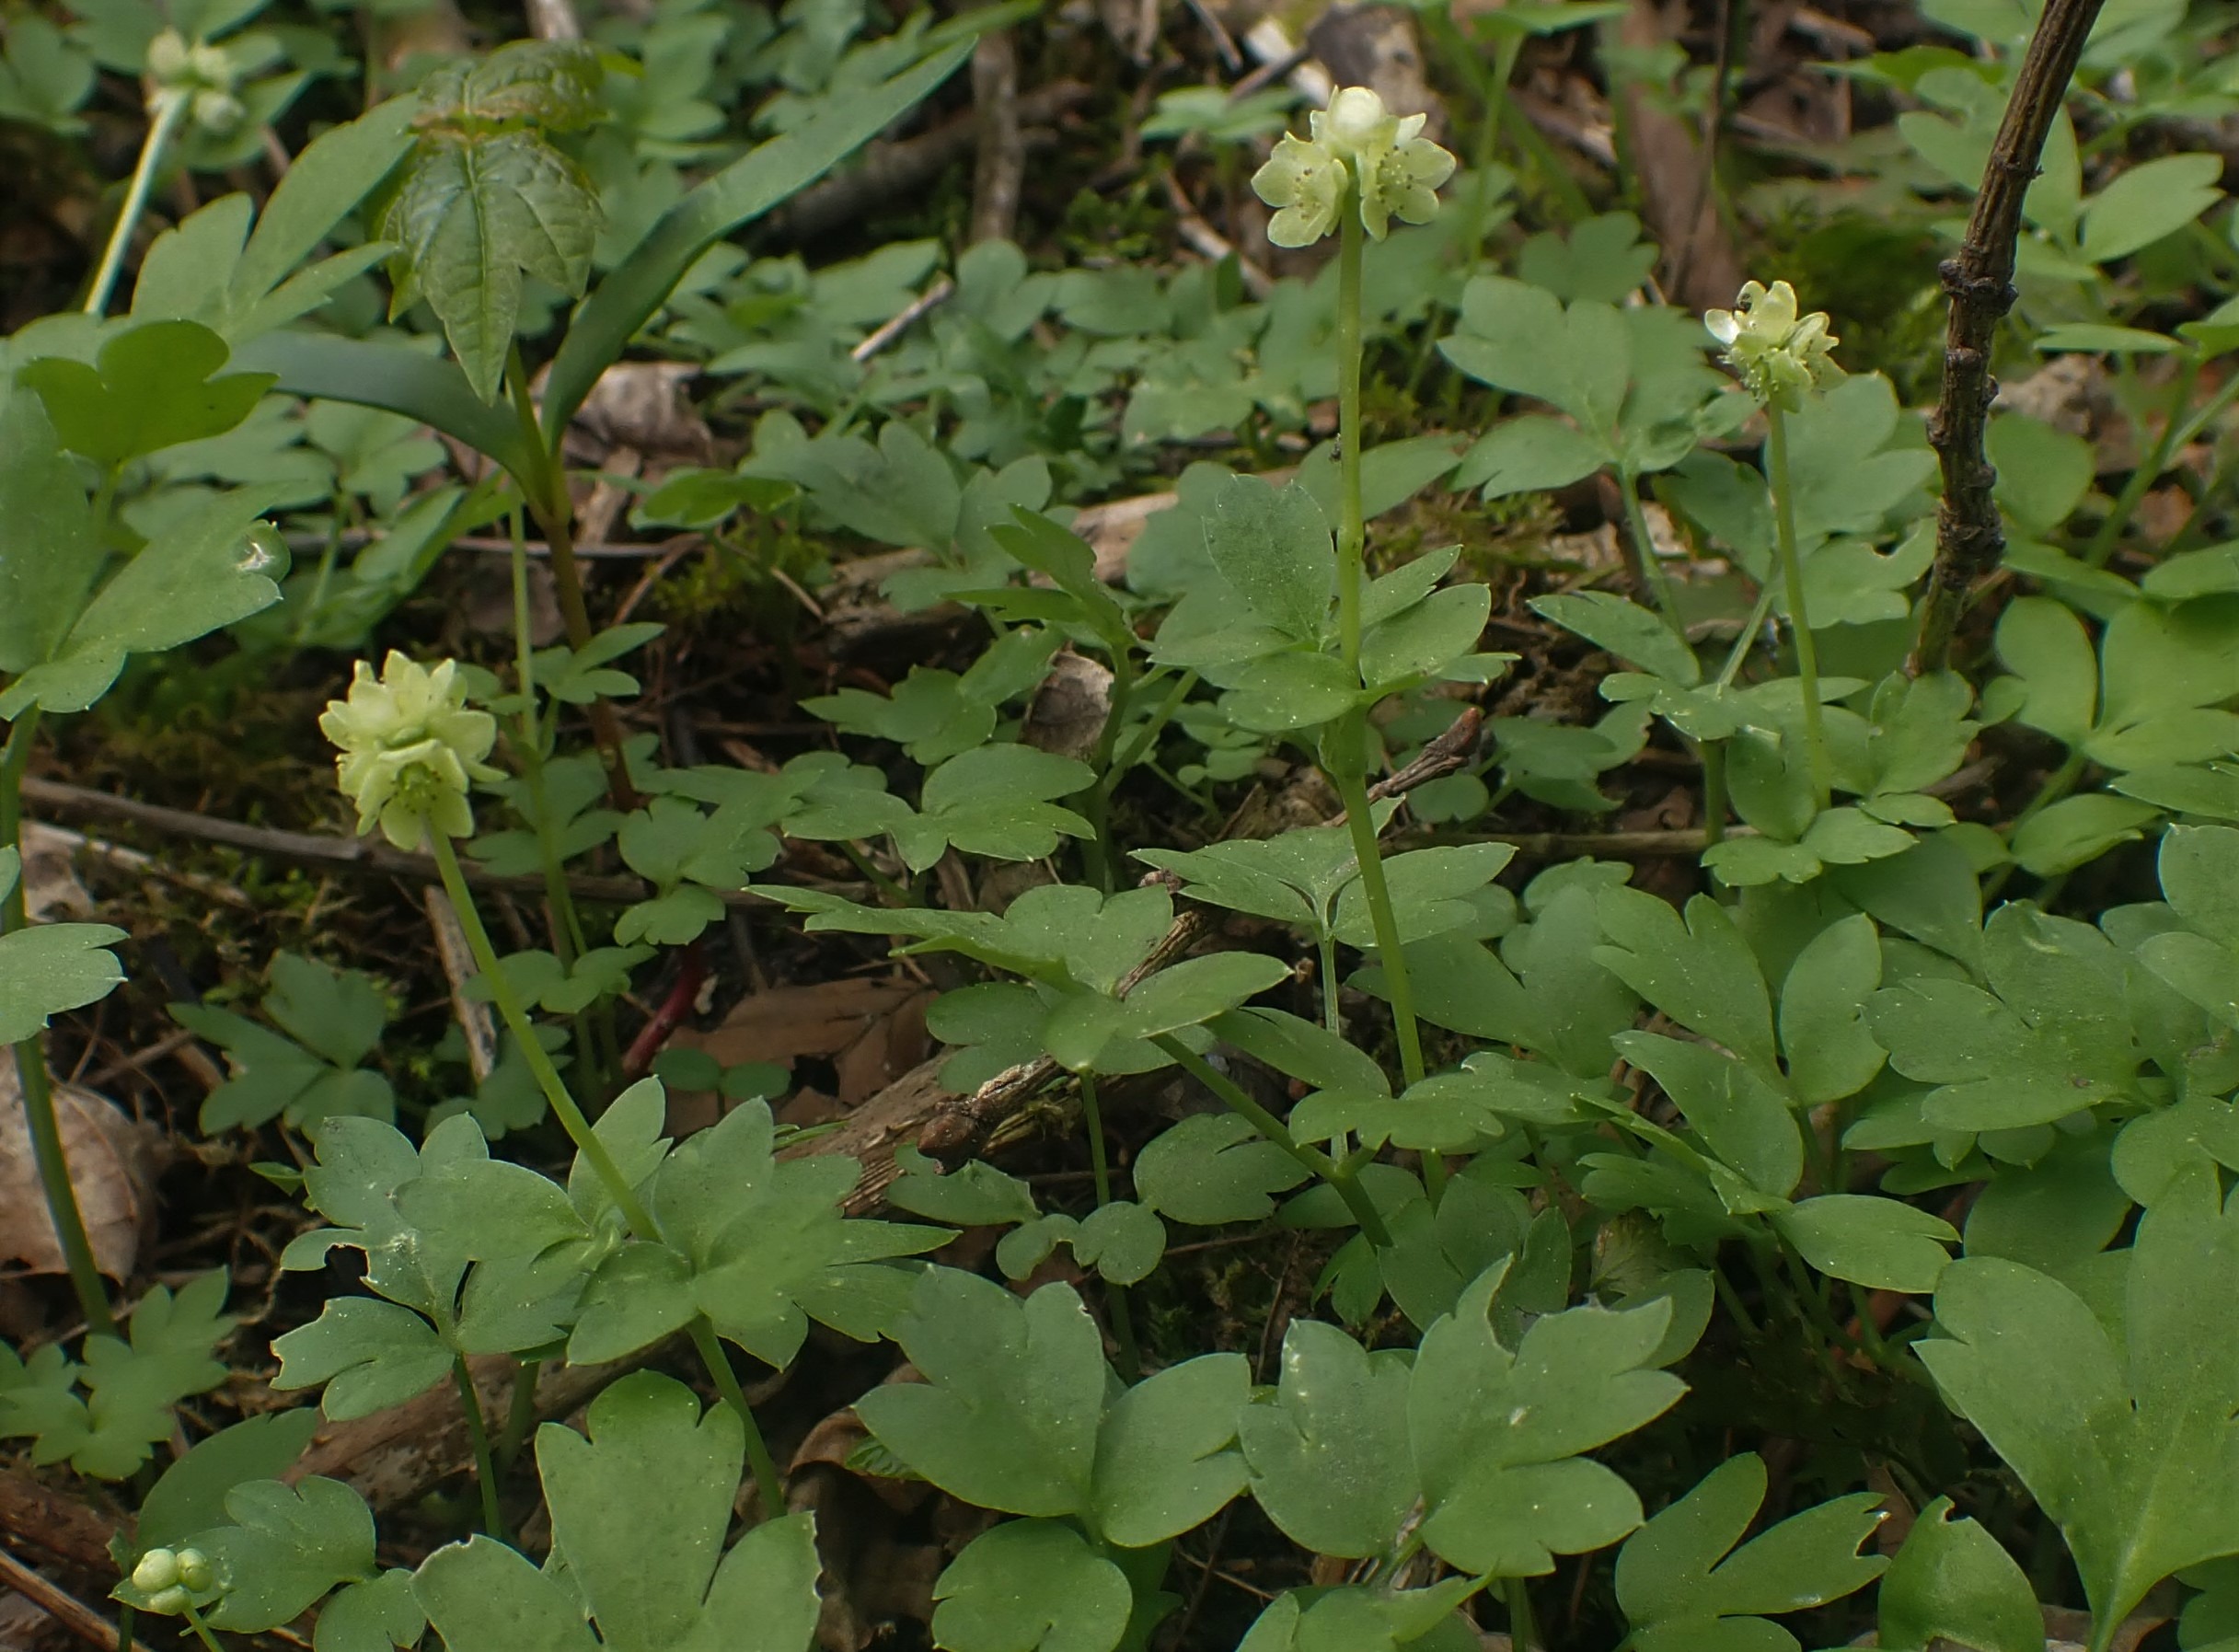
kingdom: Plantae
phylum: Tracheophyta
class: Magnoliopsida
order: Dipsacales
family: Viburnaceae
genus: Adoxa
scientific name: Adoxa moschatellina
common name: Desmerurt
